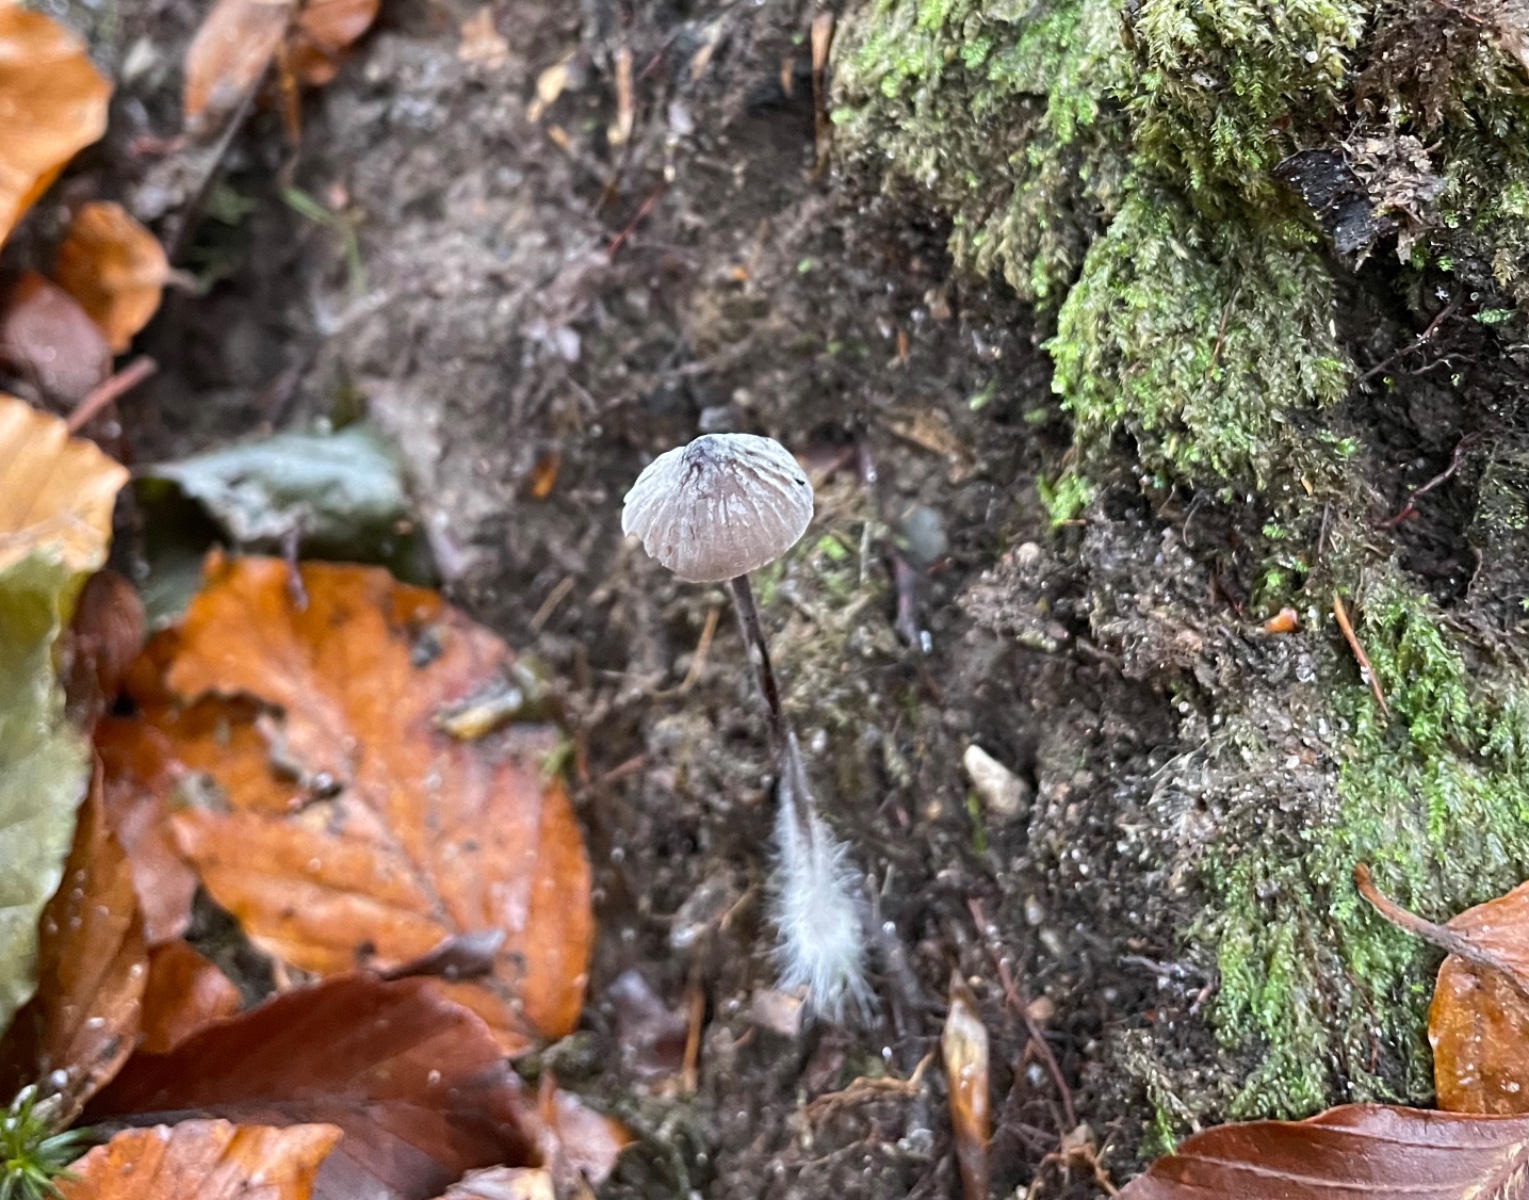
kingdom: Fungi
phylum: Basidiomycota
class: Agaricomycetes
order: Agaricales
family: Mycenaceae
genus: Mycena
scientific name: Mycena galopus
